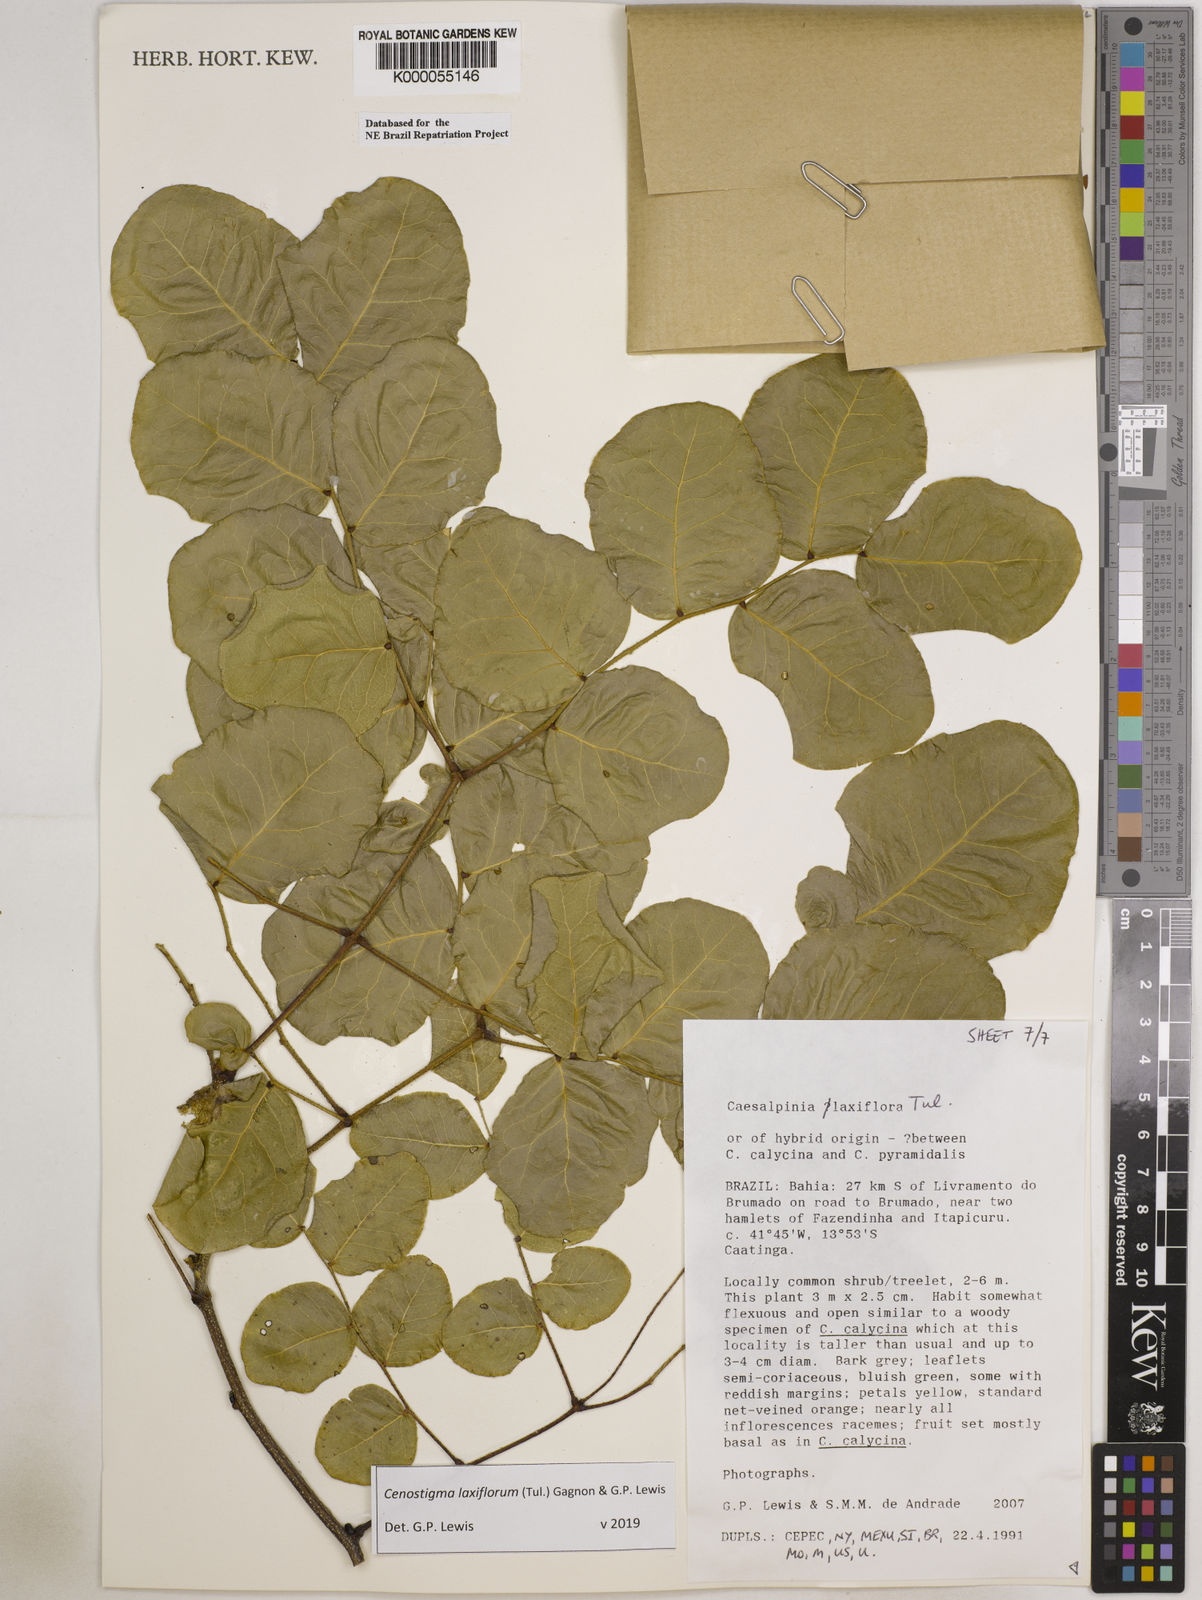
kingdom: Plantae
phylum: Tracheophyta
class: Magnoliopsida
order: Fabales
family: Fabaceae
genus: Cenostigma
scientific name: Cenostigma laxiflorum
